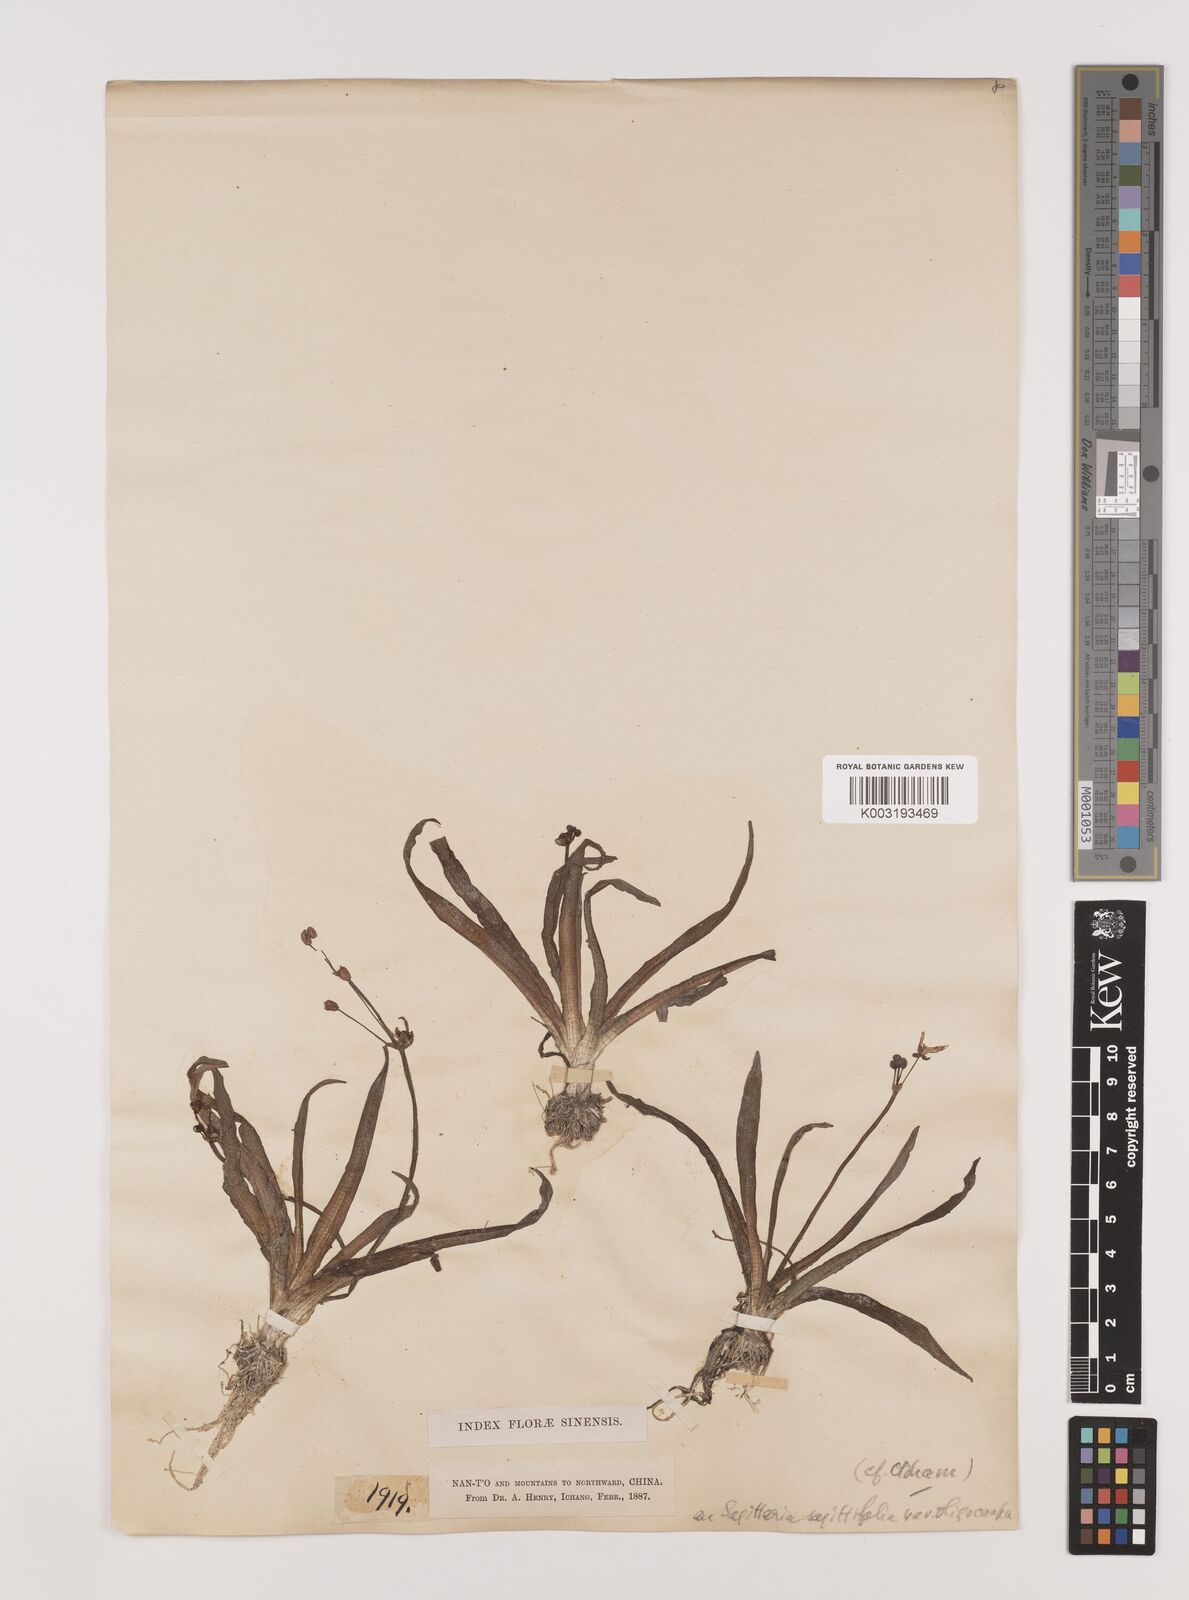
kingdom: Plantae
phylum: Tracheophyta
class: Liliopsida
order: Alismatales
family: Alismataceae
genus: Sagittaria
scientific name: Sagittaria pygmaea
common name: Pygmy arrowhead
